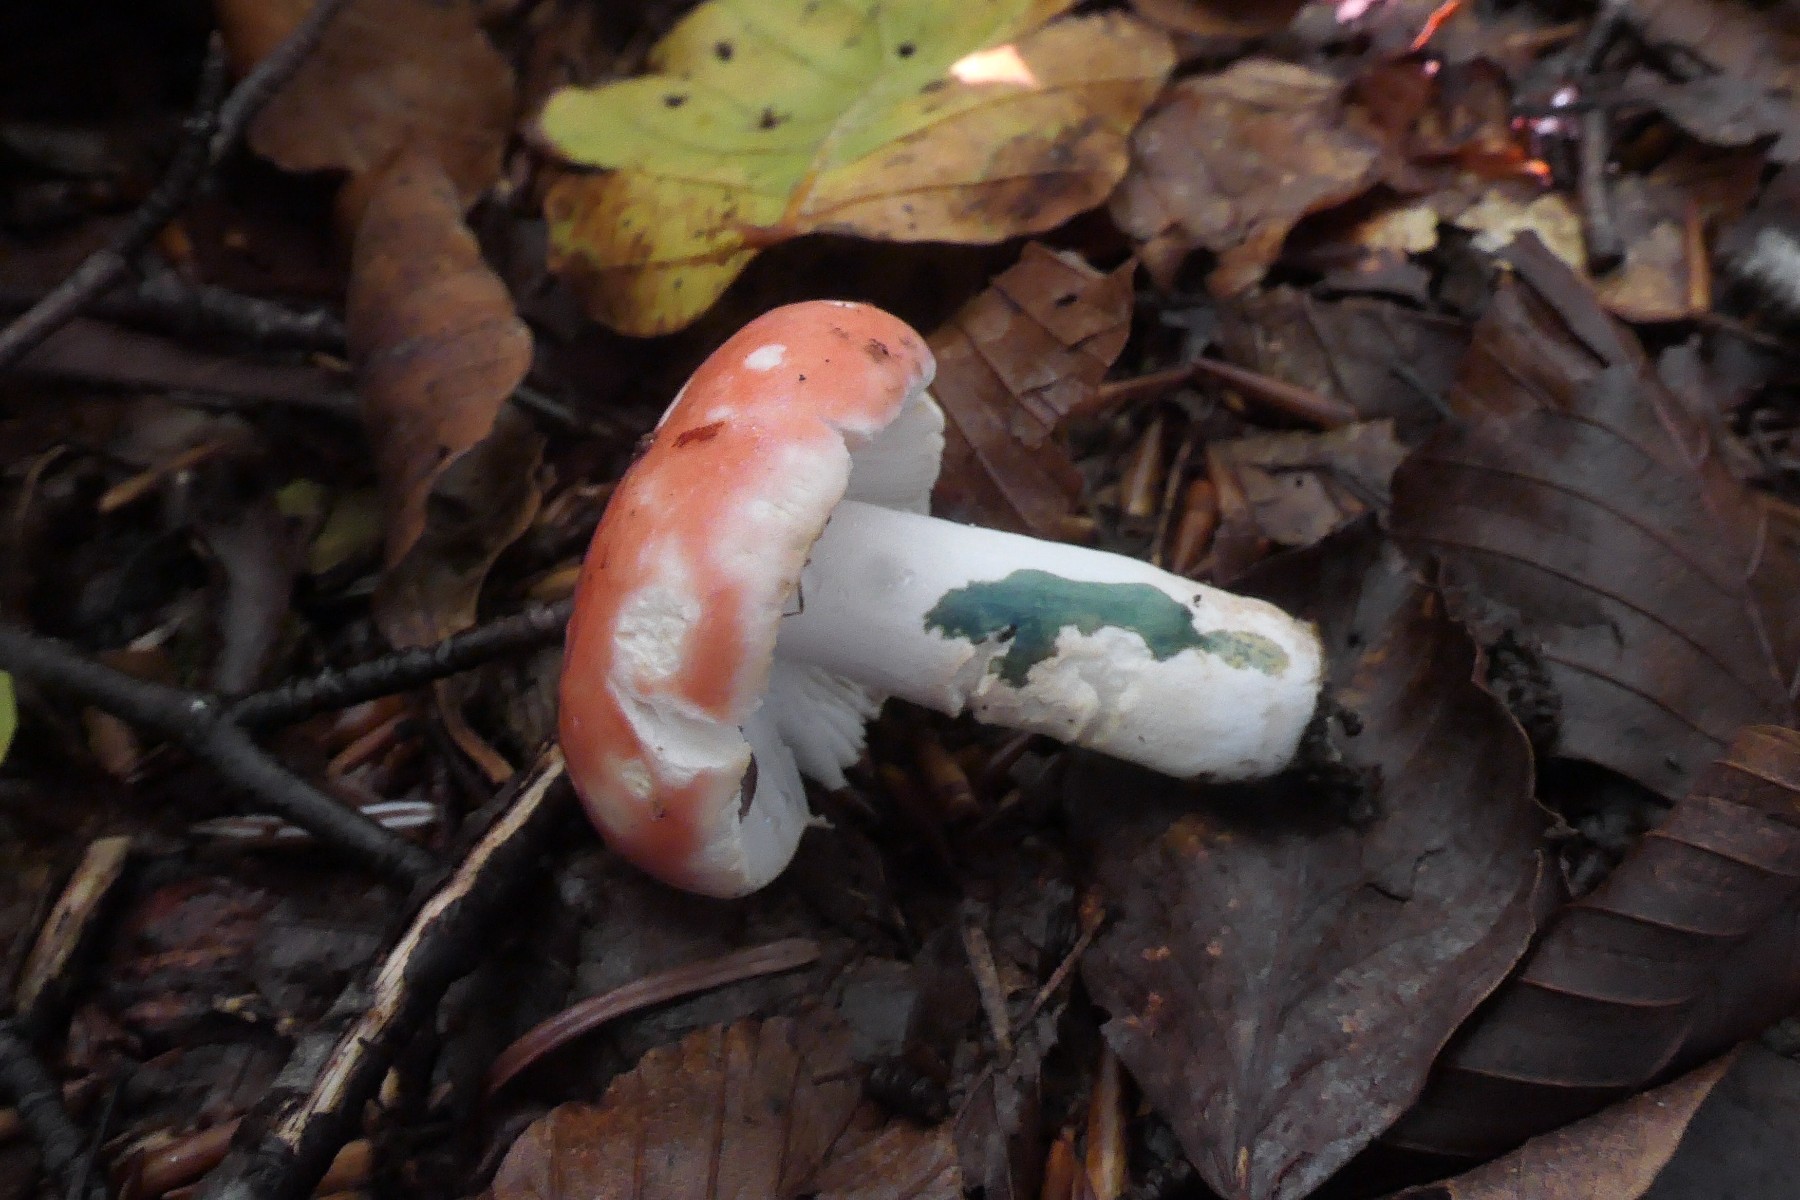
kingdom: Fungi
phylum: Basidiomycota
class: Agaricomycetes
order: Russulales
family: Russulaceae
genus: Russula
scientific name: Russula nobilis
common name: lille gift-skørhat
